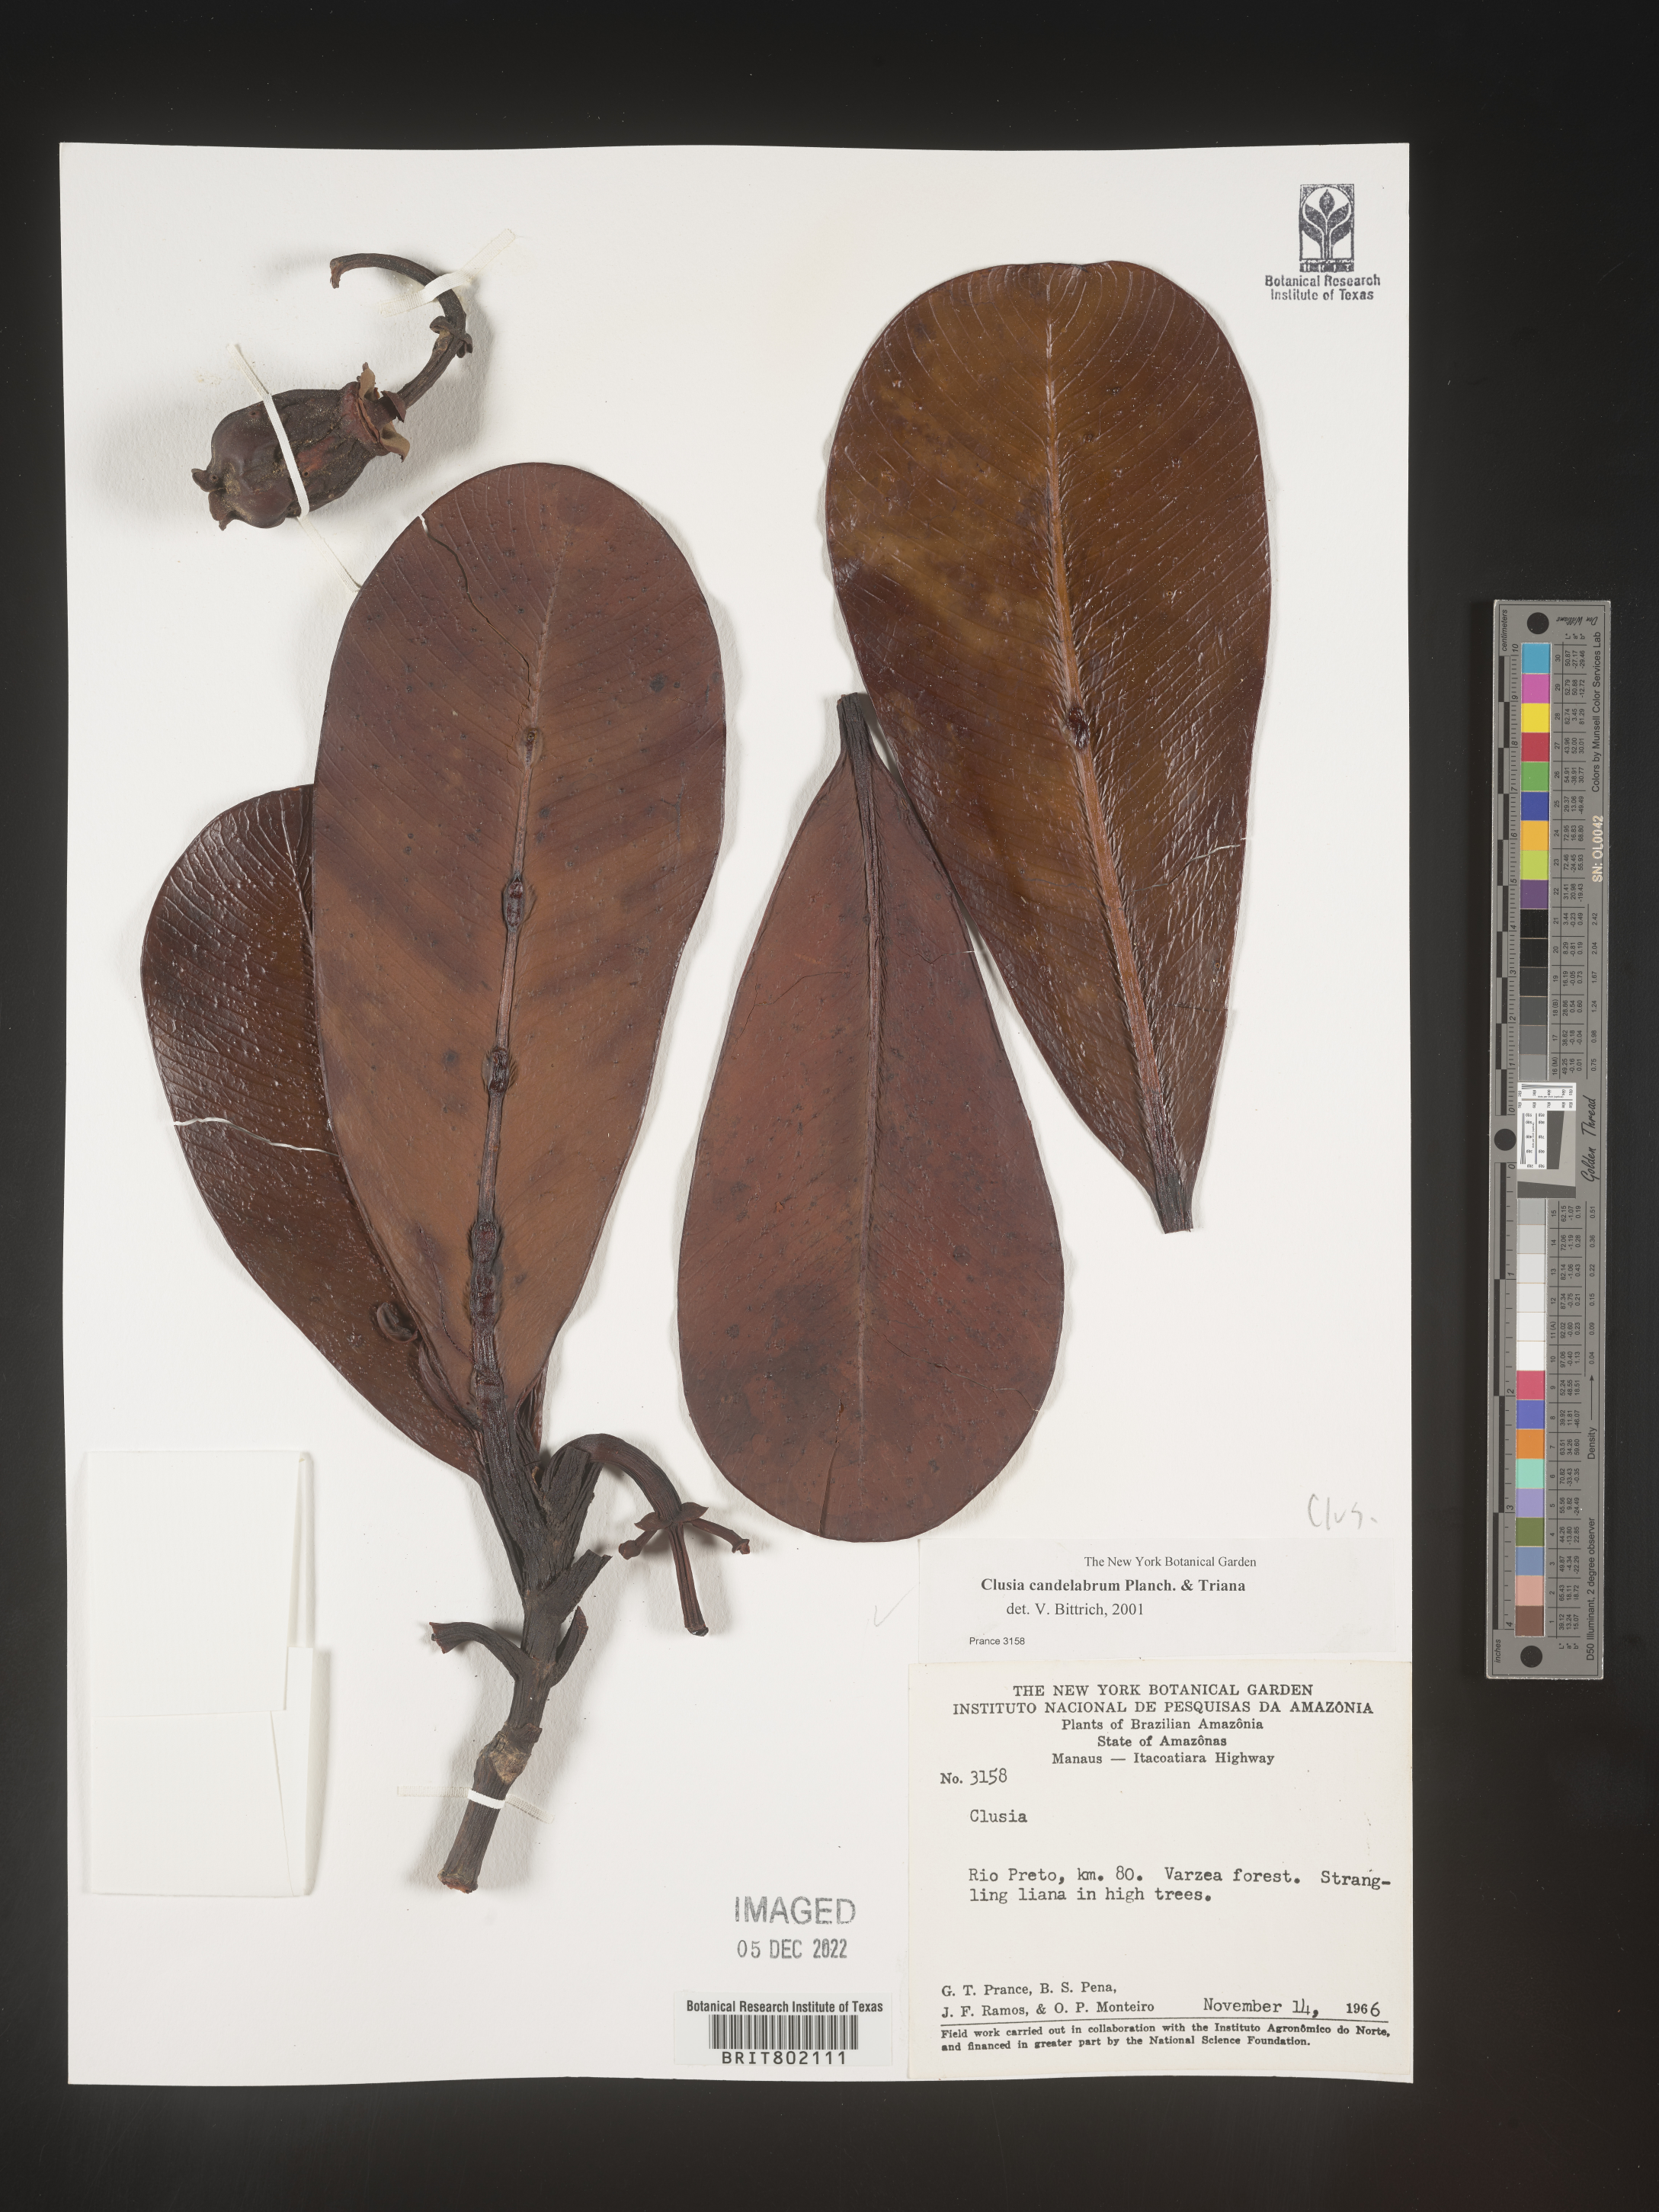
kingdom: Plantae
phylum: Tracheophyta
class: Magnoliopsida
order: Malpighiales
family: Clusiaceae
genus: Clusia
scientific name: Clusia candelabrum
